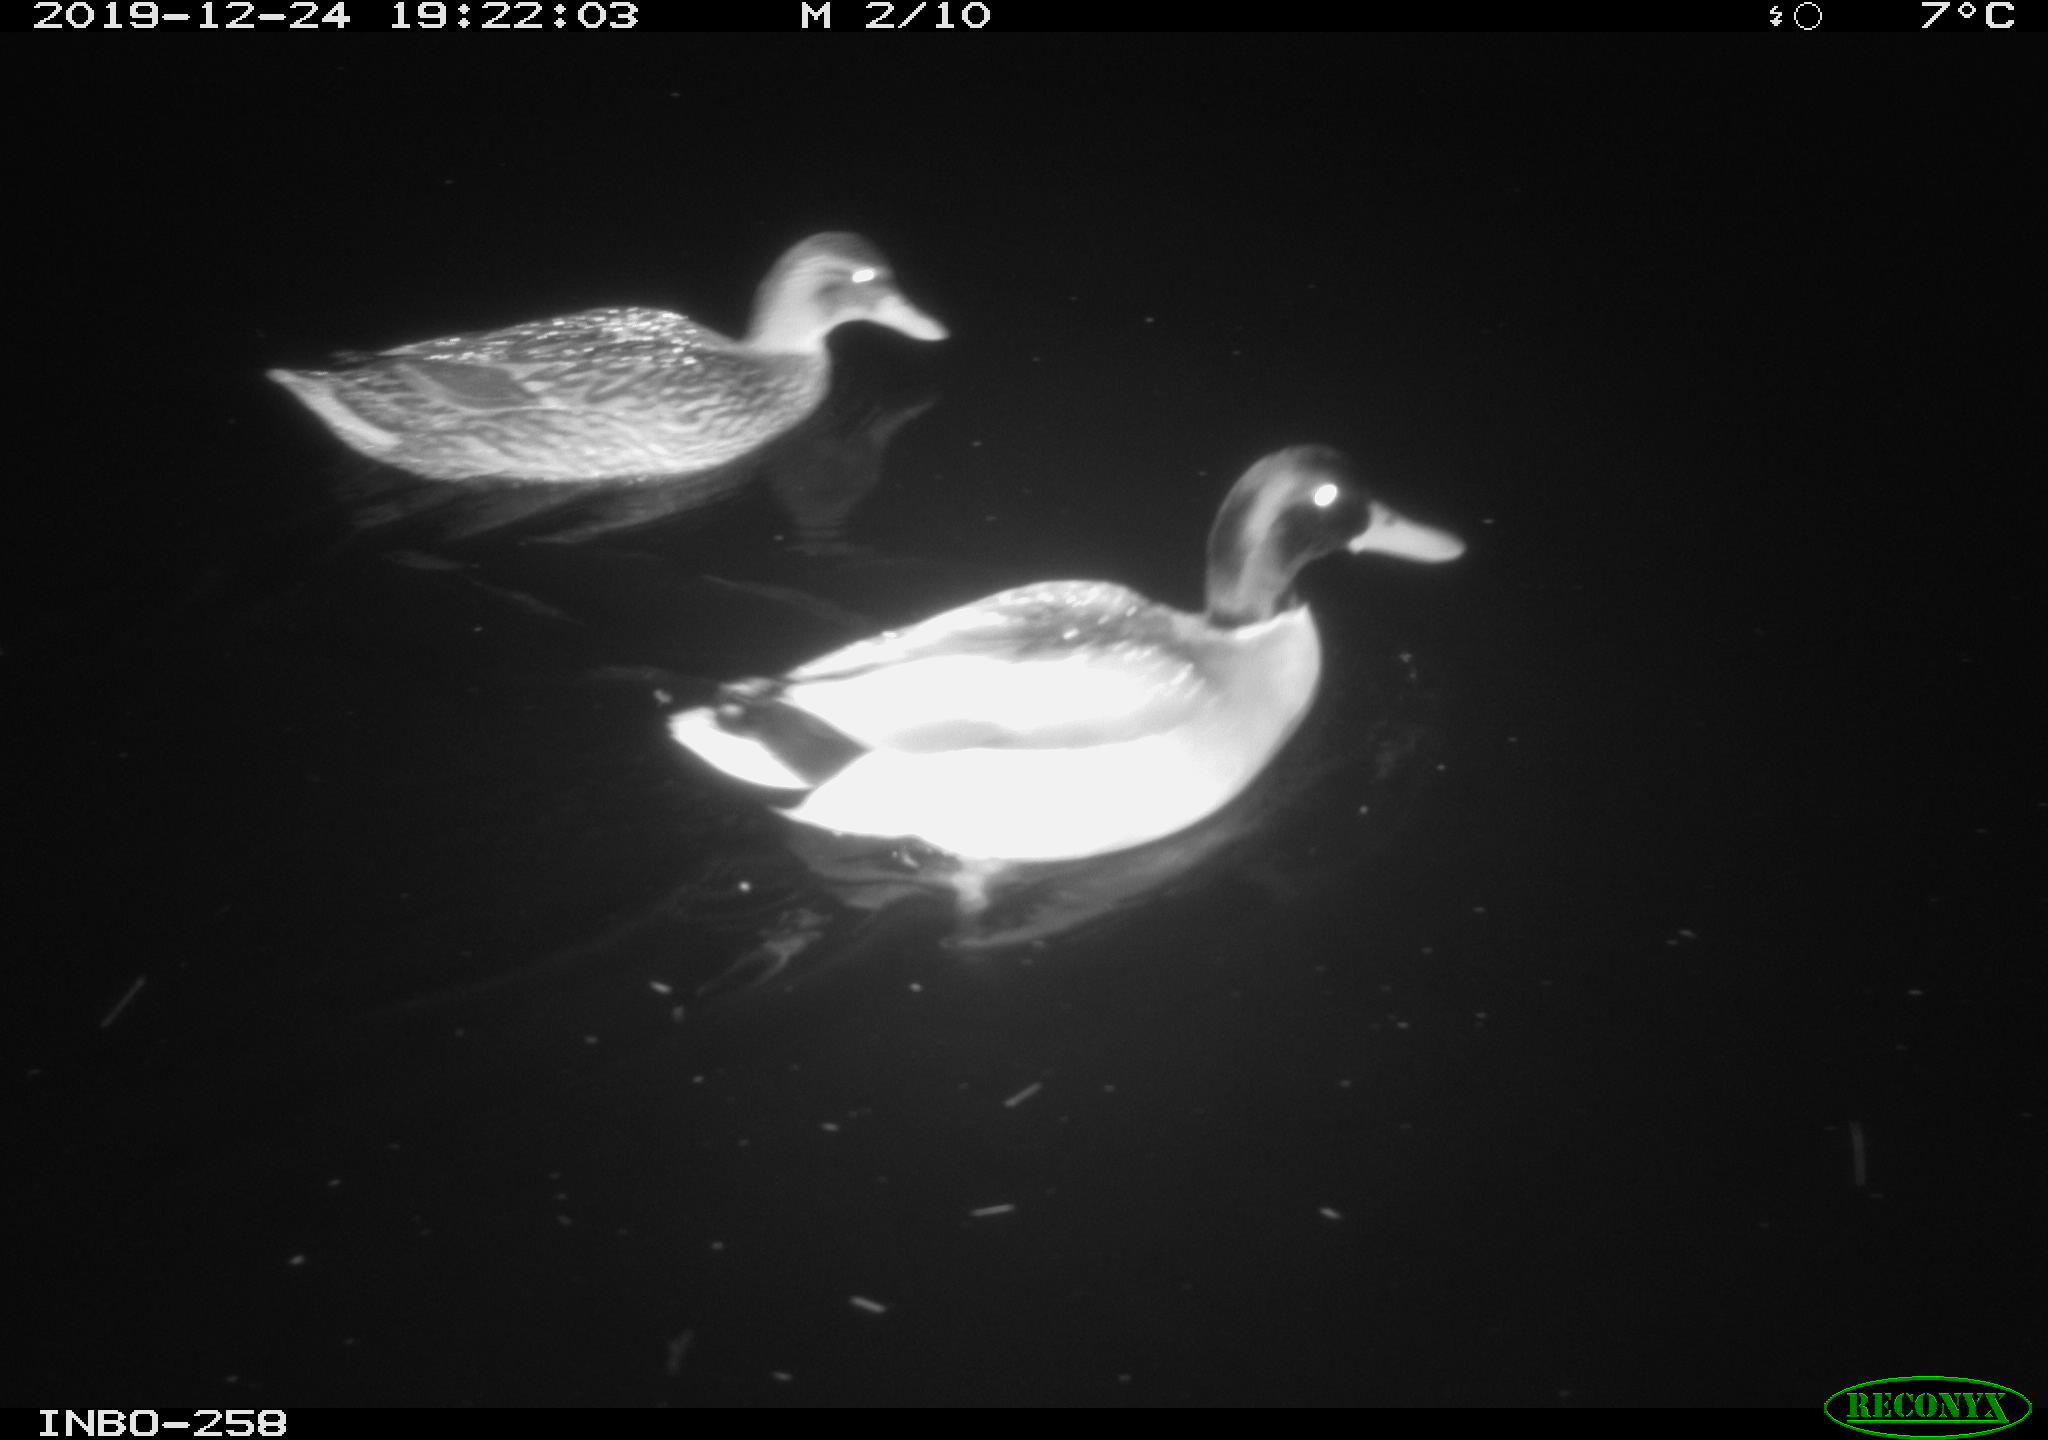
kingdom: Animalia
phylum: Chordata
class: Aves
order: Anseriformes
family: Anatidae
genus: Anas
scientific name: Anas platyrhynchos
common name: Mallard
